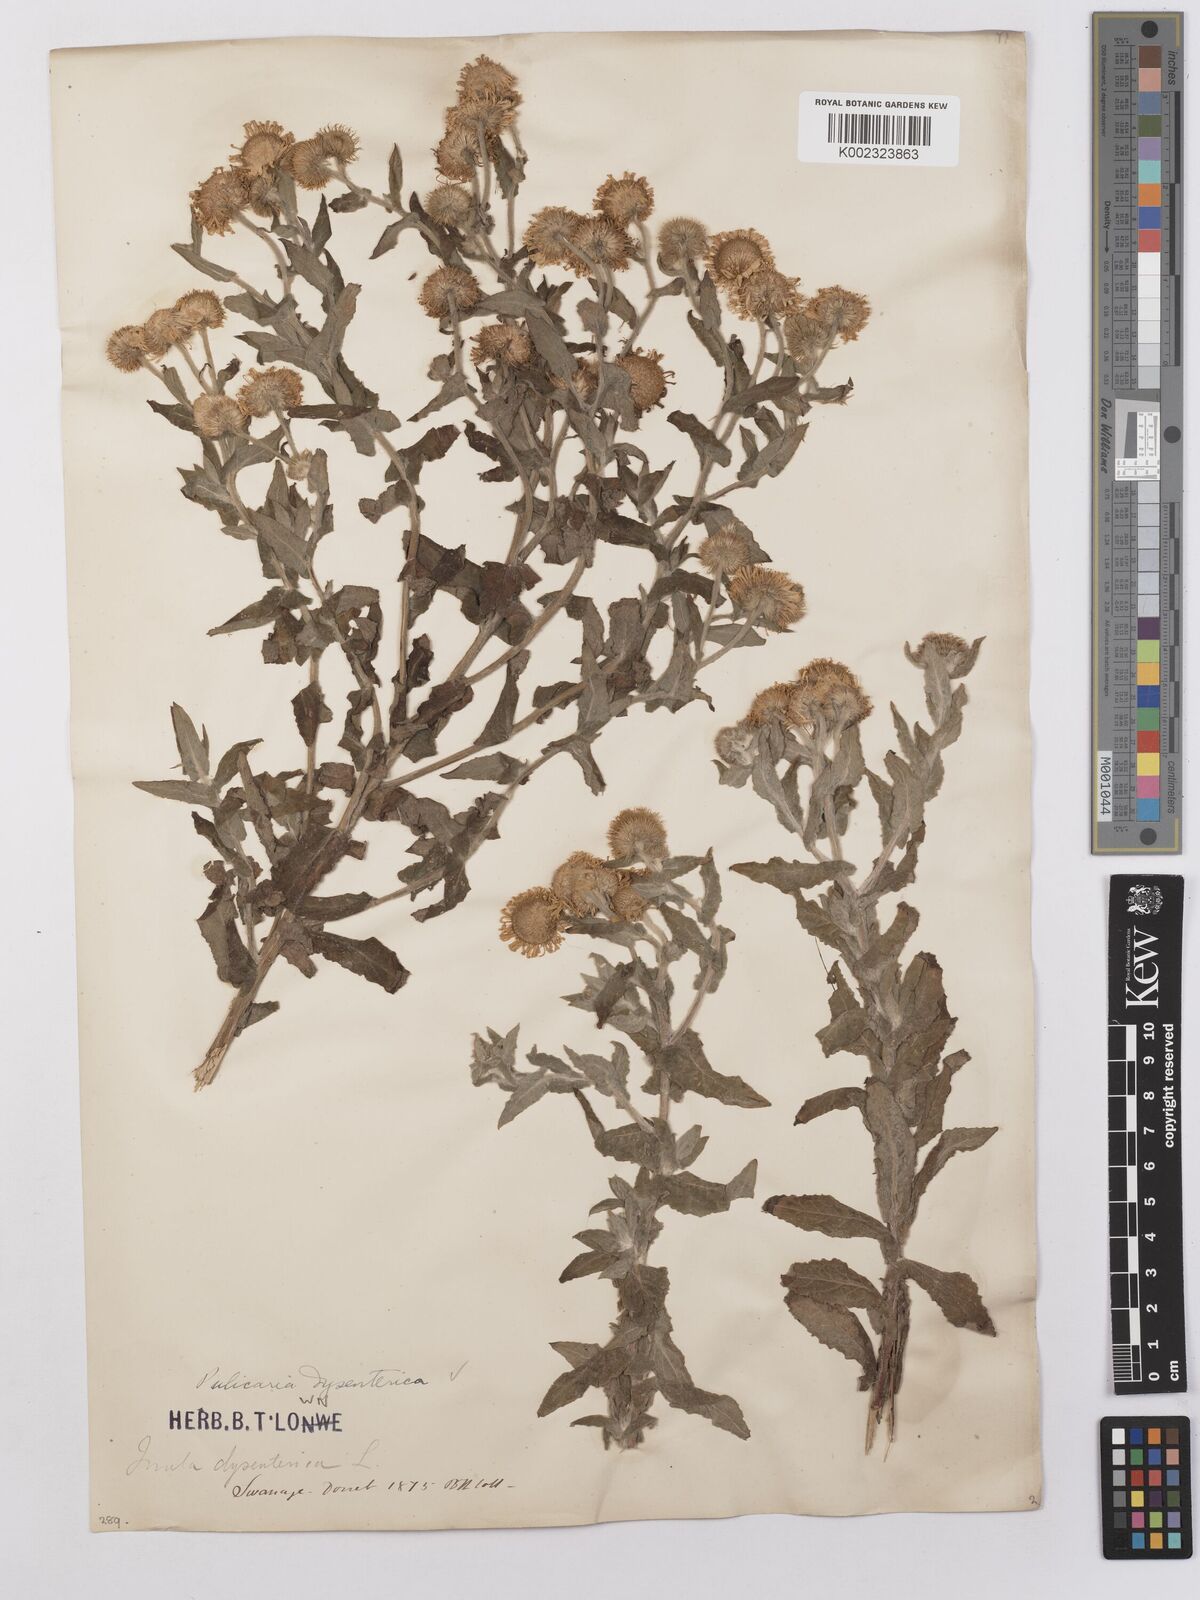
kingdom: Plantae
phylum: Tracheophyta
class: Magnoliopsida
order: Asterales
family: Asteraceae
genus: Pulicaria
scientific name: Pulicaria dysenterica
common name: Common fleabane
